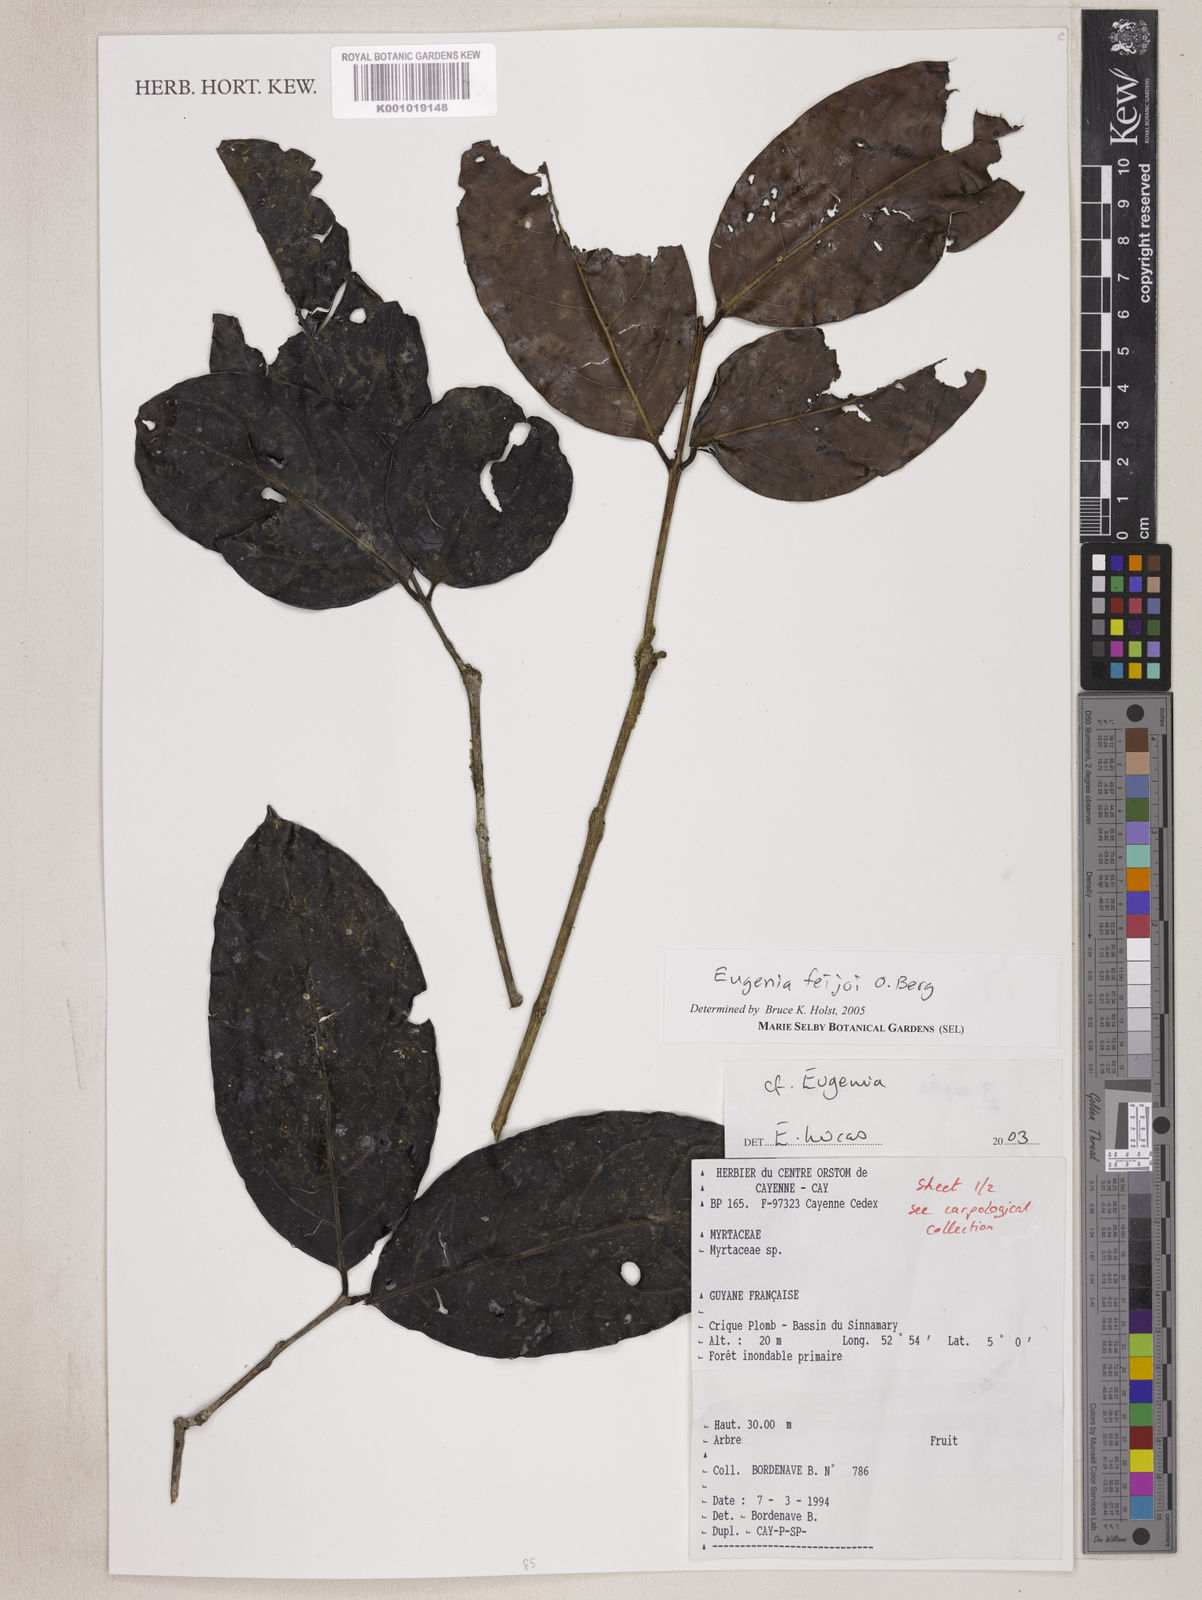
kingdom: Plantae
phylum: Tracheophyta
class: Magnoliopsida
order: Myrtales
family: Myrtaceae
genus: Eugenia
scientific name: Eugenia moschata
